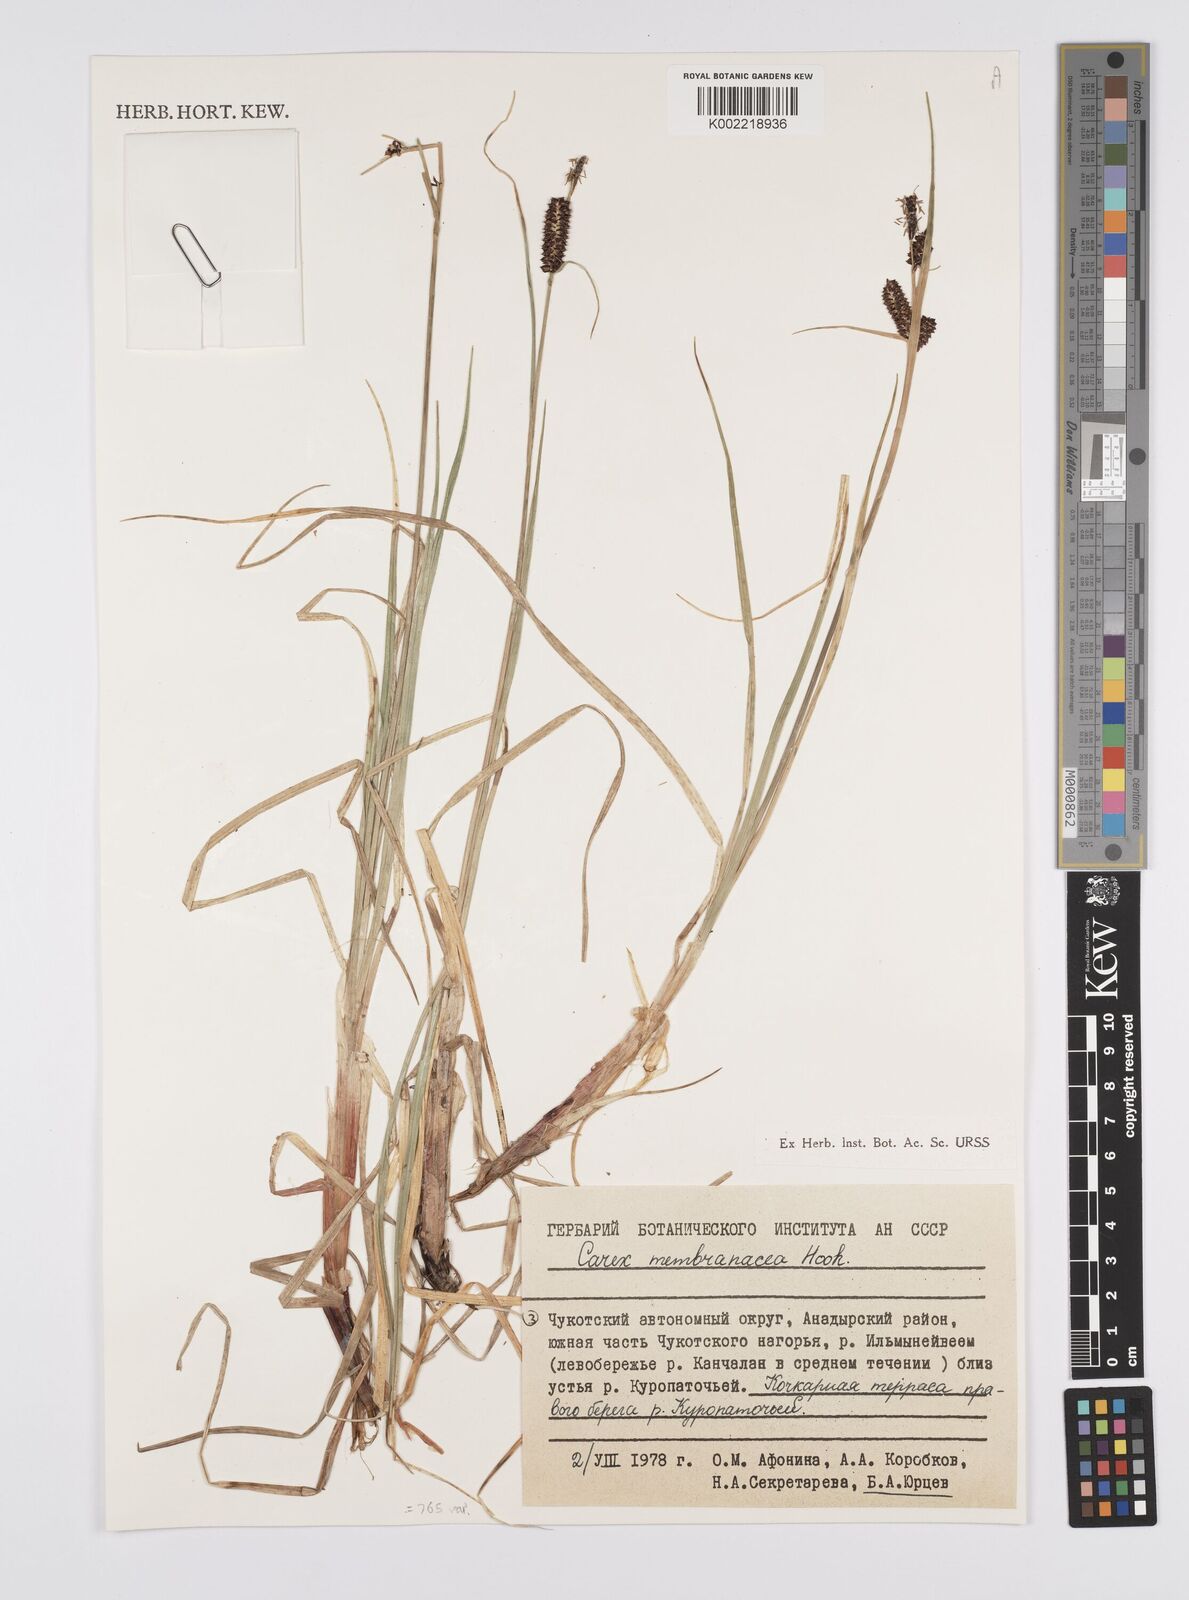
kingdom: Plantae
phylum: Tracheophyta
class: Liliopsida
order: Poales
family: Cyperaceae
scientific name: Cyperaceae
